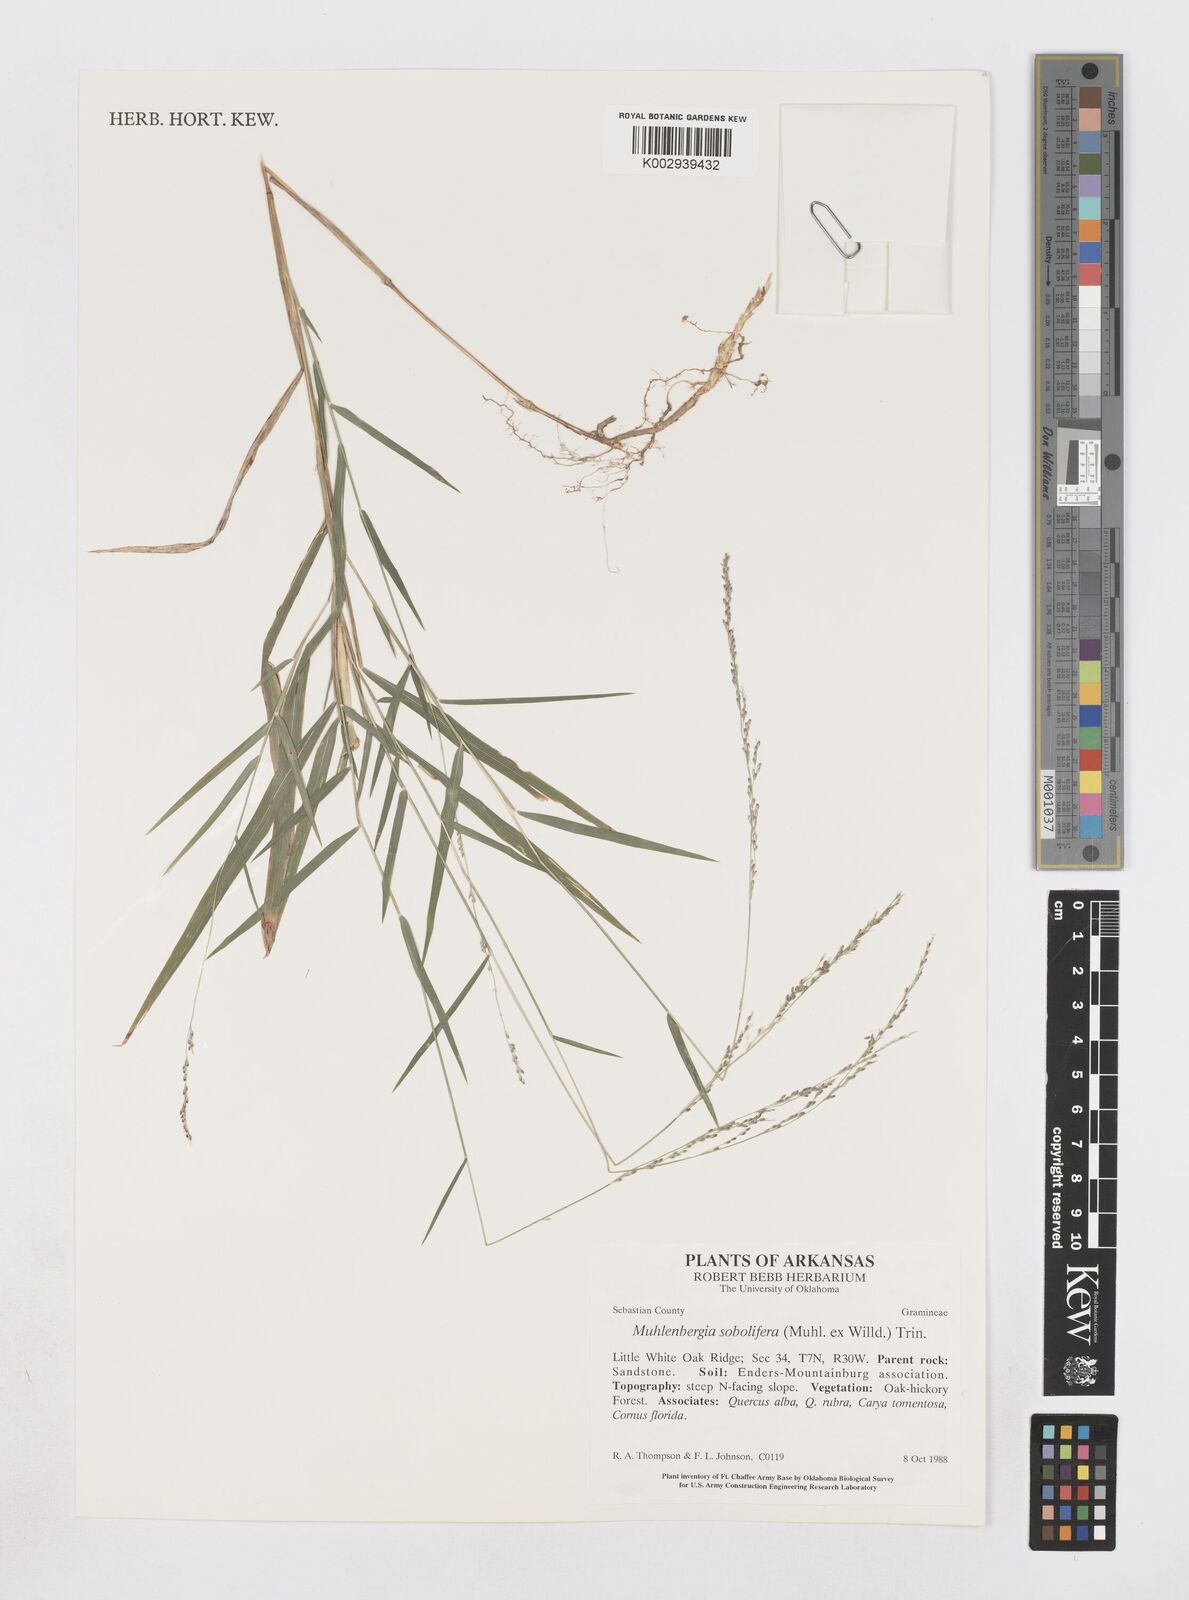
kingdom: Plantae
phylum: Tracheophyta
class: Liliopsida
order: Poales
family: Poaceae
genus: Muhlenbergia
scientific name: Muhlenbergia sobolifera
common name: Creeping muhly
